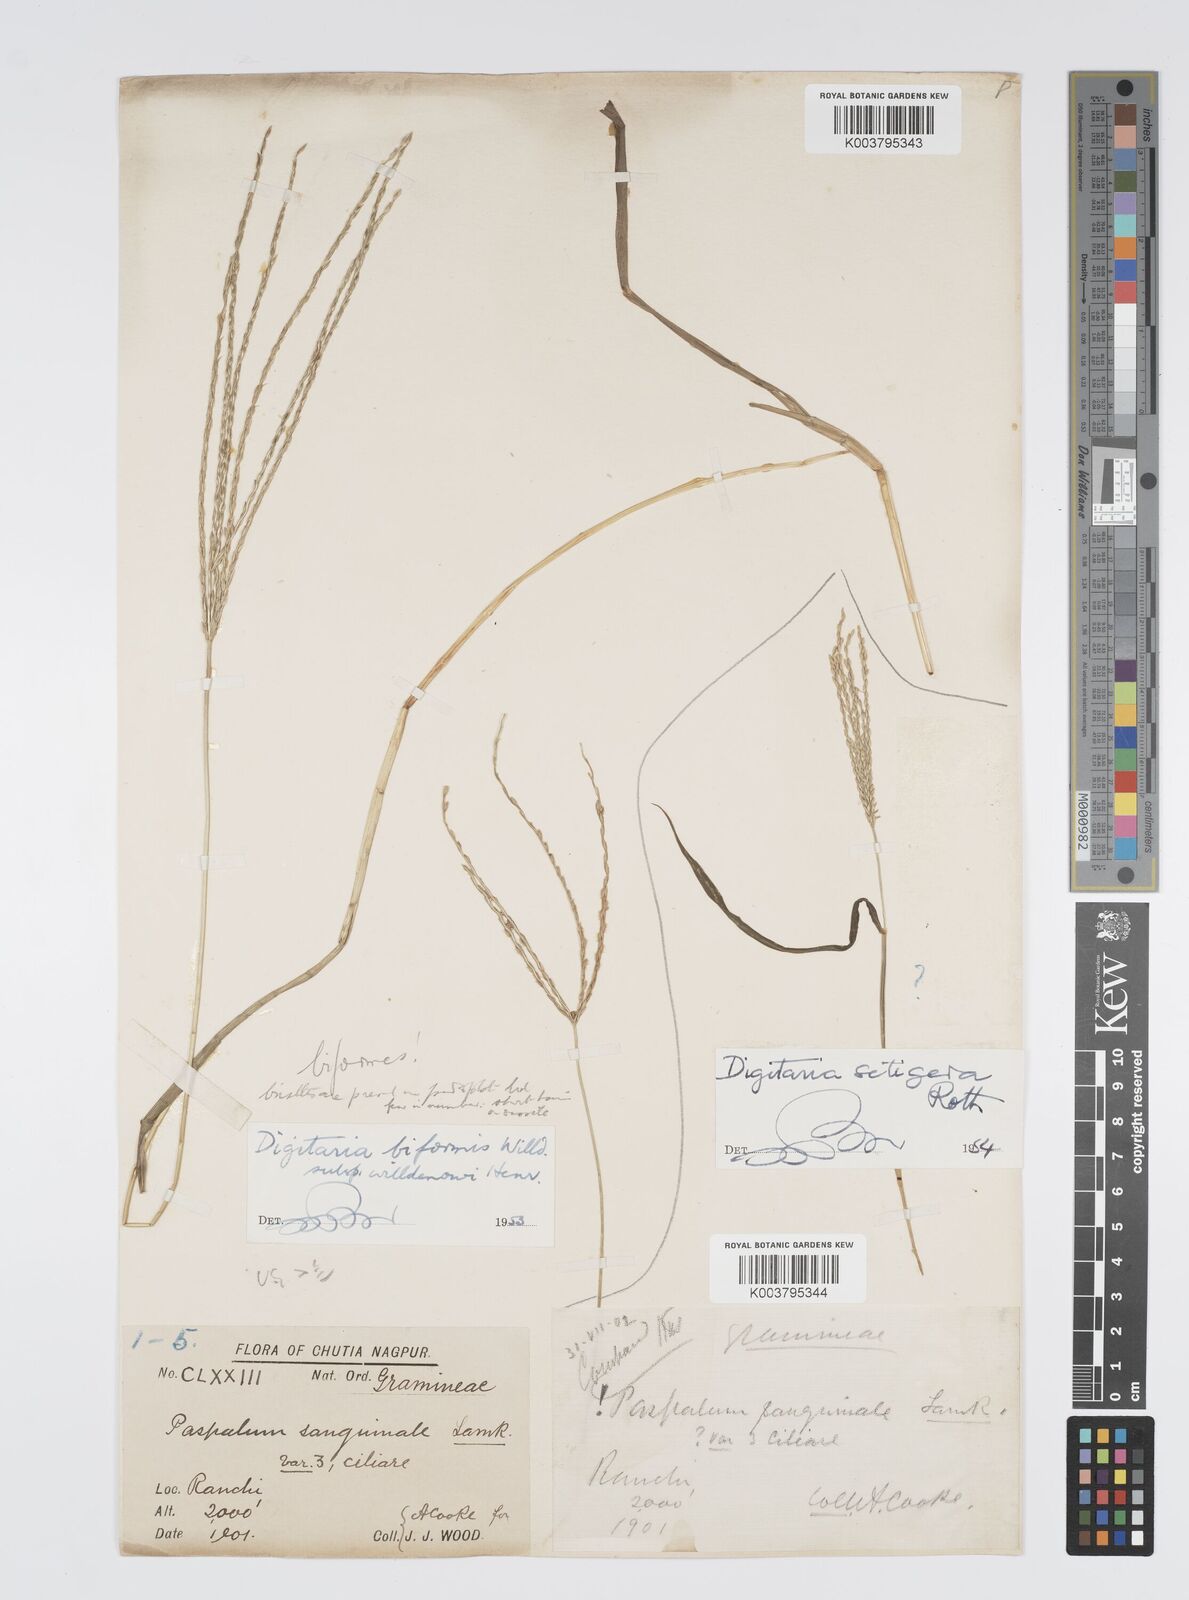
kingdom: Plantae
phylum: Tracheophyta
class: Liliopsida
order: Poales
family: Poaceae
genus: Digitaria
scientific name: Digitaria ciliaris
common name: Tropical finger-grass
